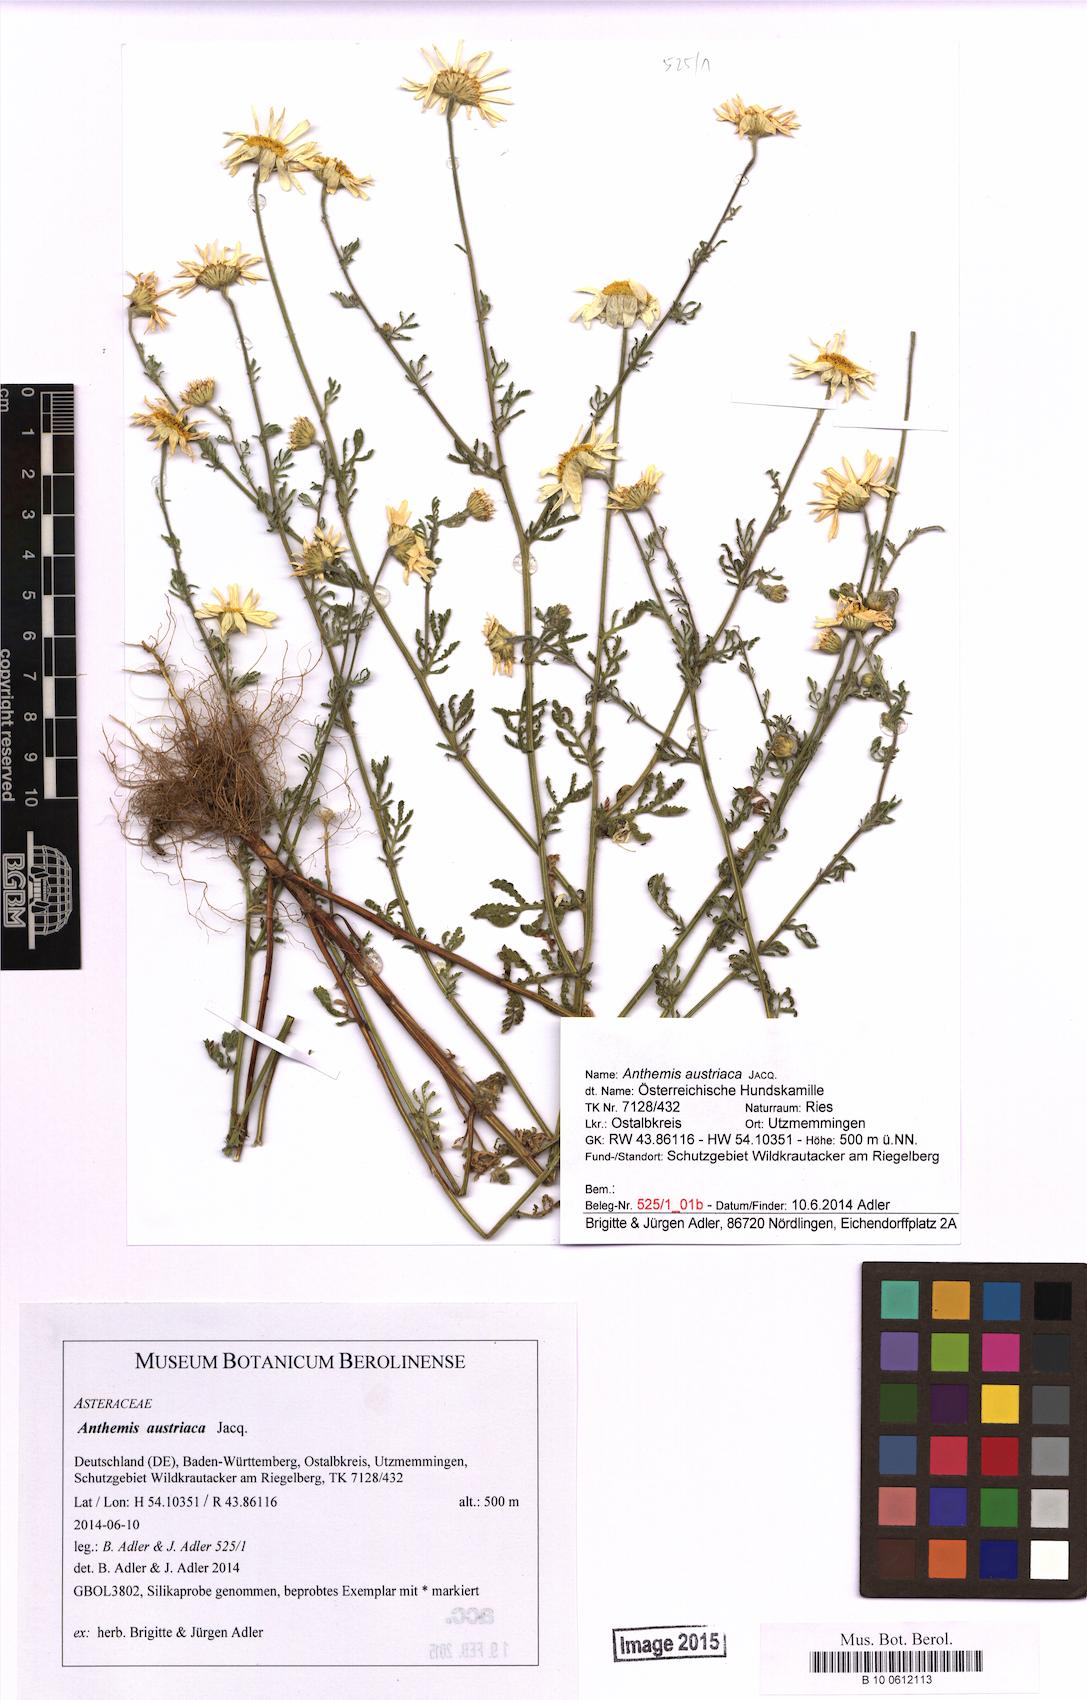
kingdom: Plantae
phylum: Tracheophyta
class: Magnoliopsida
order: Asterales
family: Asteraceae
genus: Cota
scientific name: Cota austriaca
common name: Austrian chamomile
